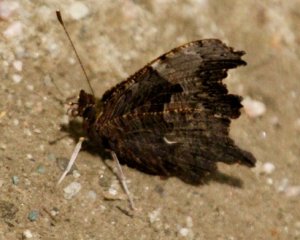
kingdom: Animalia
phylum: Arthropoda
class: Insecta
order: Lepidoptera
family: Nymphalidae
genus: Polygonia
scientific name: Polygonia progne
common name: Gray Comma
